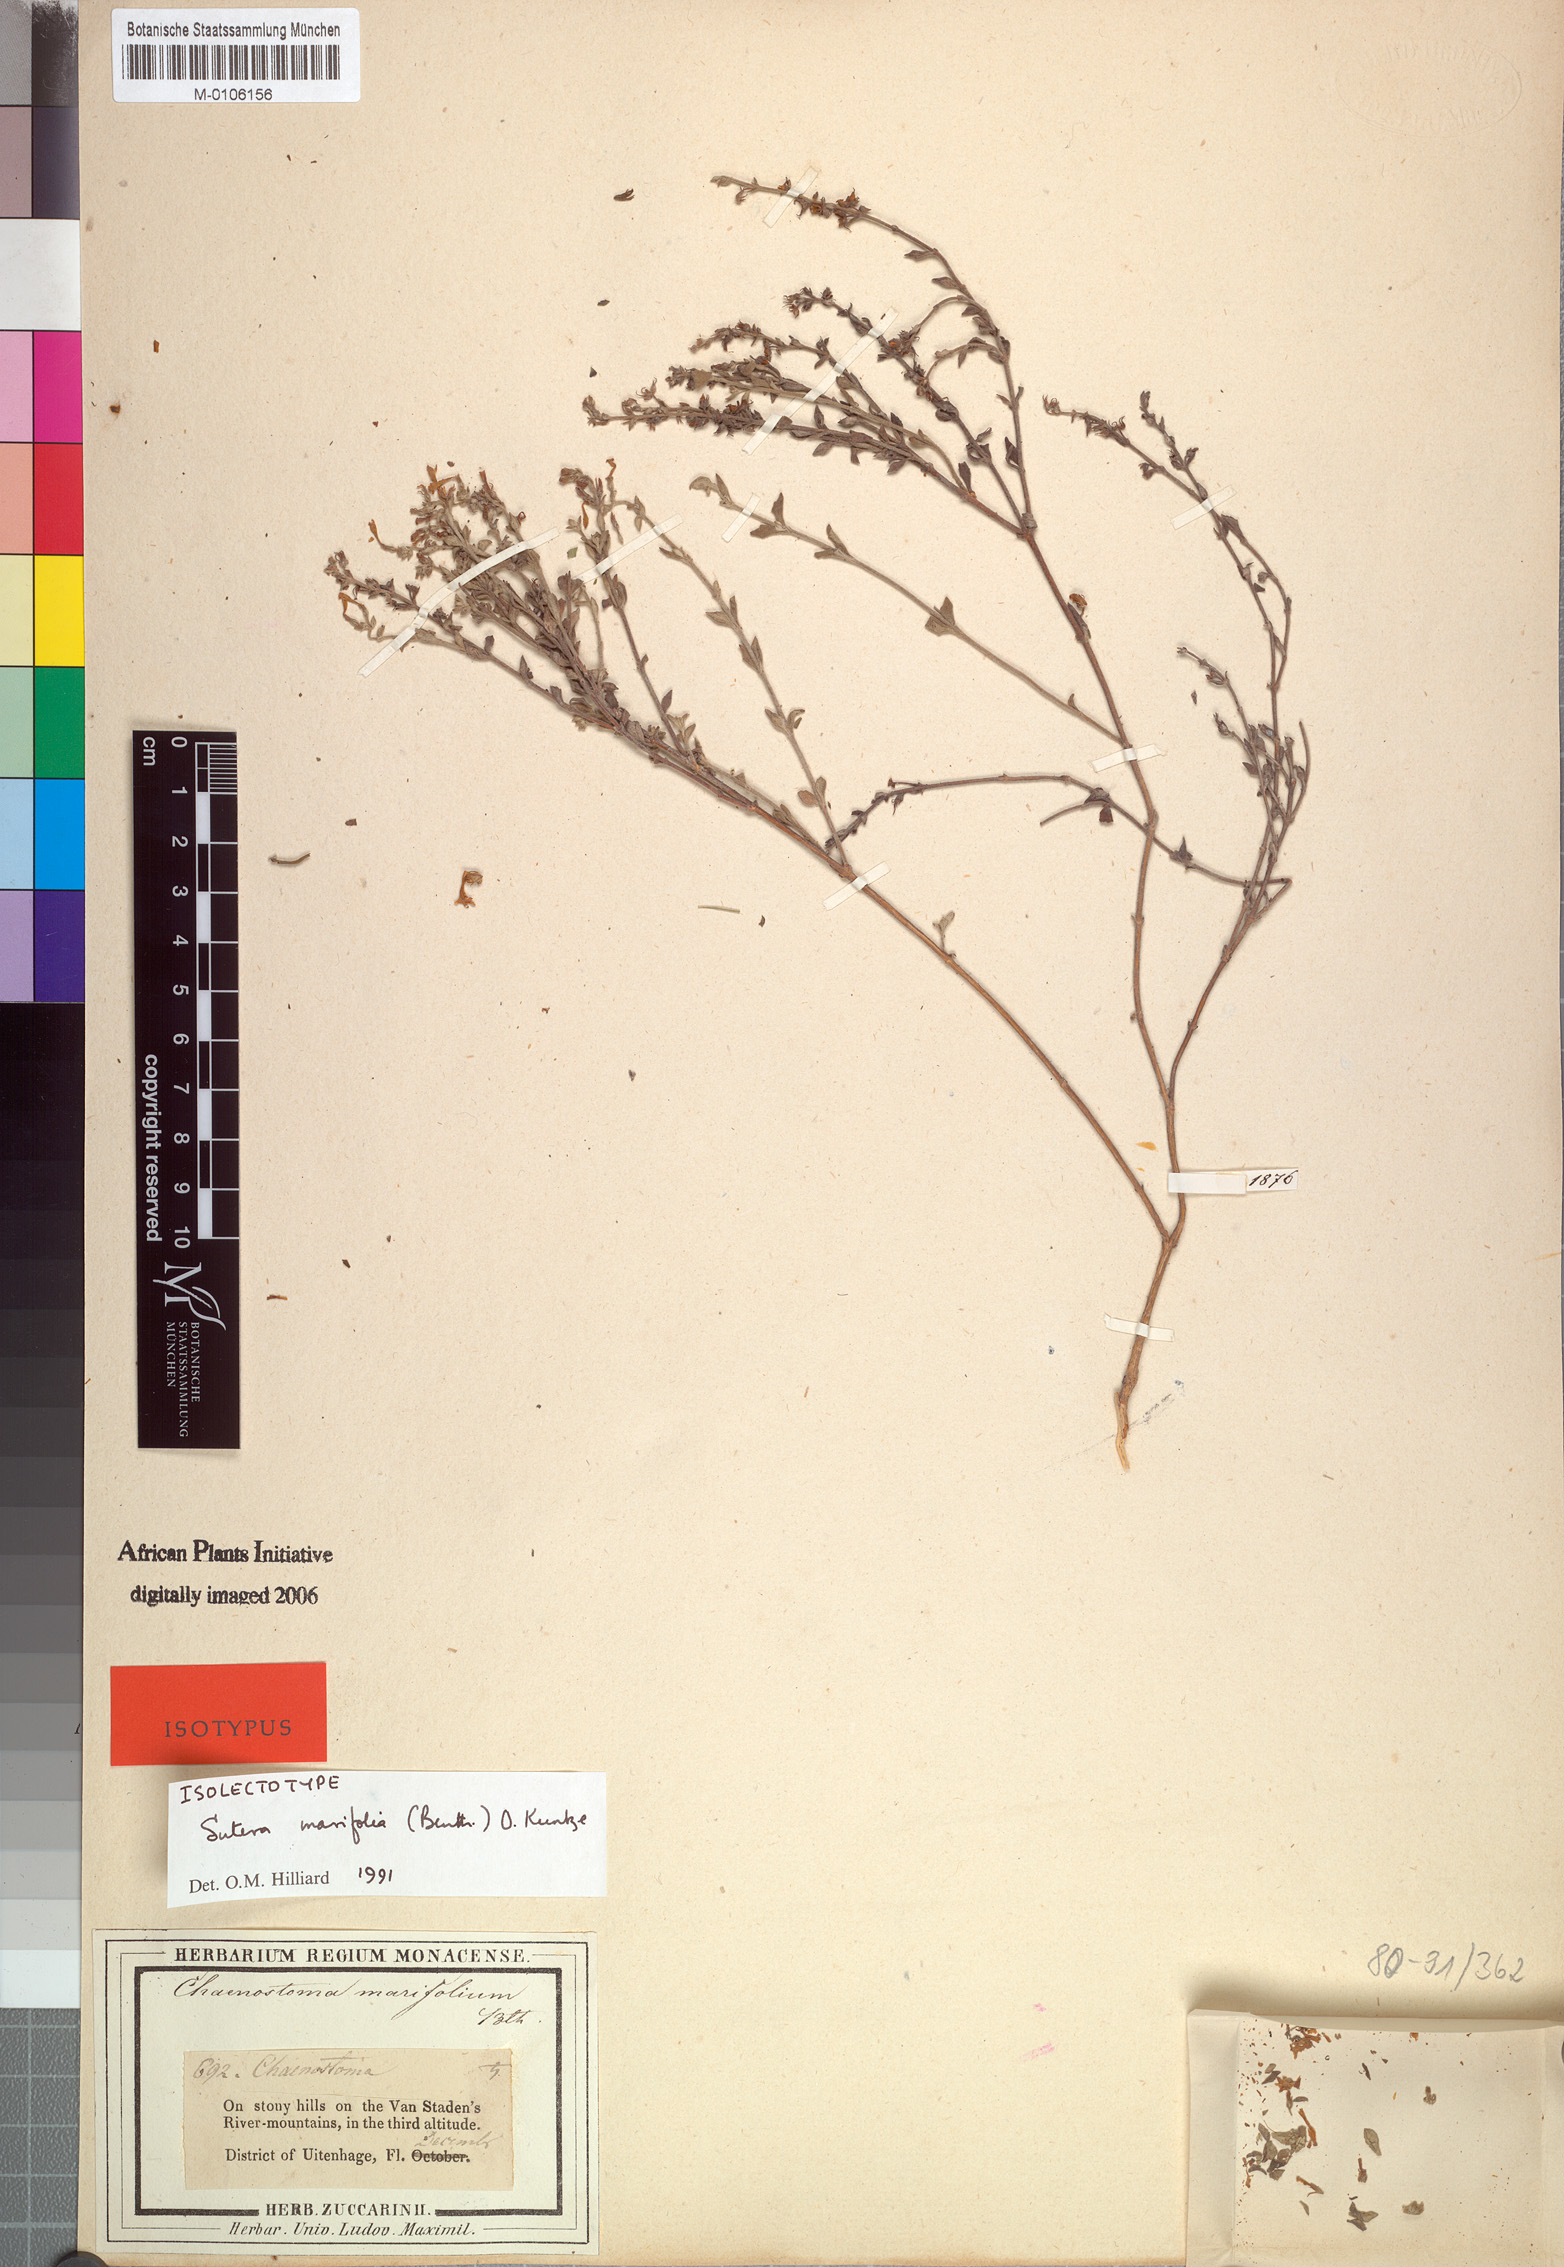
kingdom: Plantae
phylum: Tracheophyta
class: Magnoliopsida
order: Lamiales
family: Scrophulariaceae
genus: Chaenostoma
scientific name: Chaenostoma marifolium
